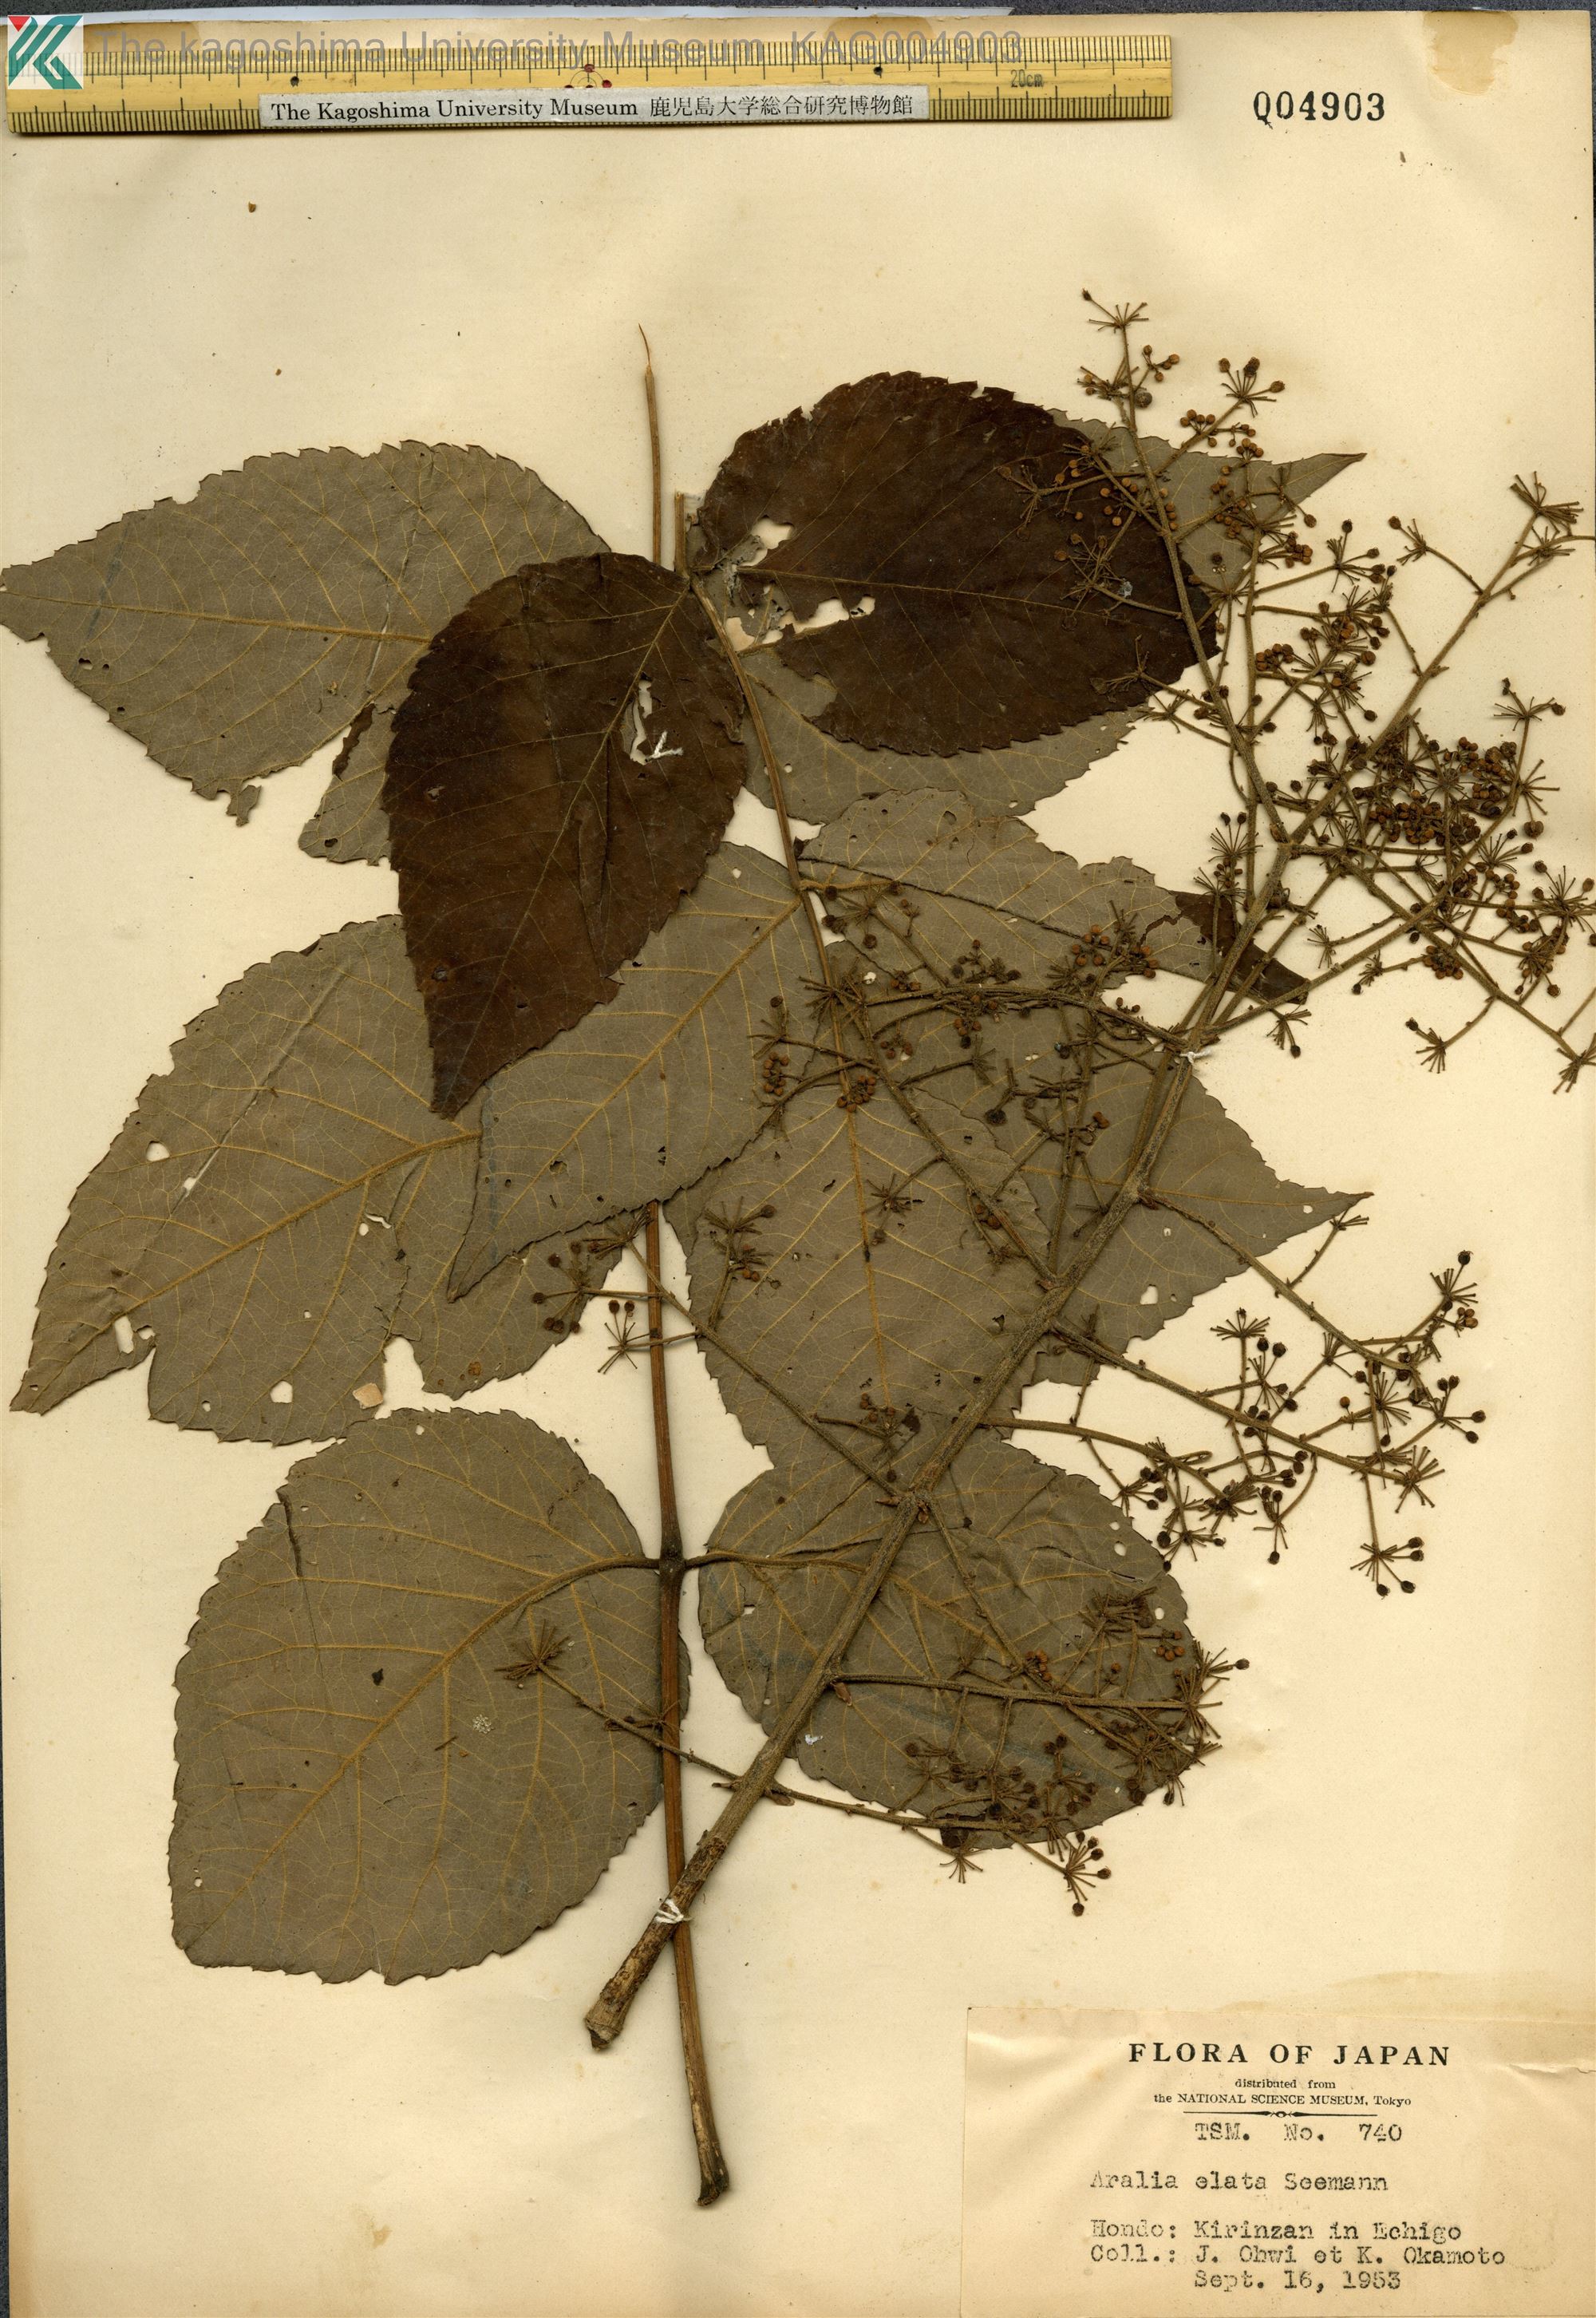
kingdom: Plantae
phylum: Tracheophyta
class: Magnoliopsida
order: Apiales
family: Araliaceae
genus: Aralia
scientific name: Aralia elata
